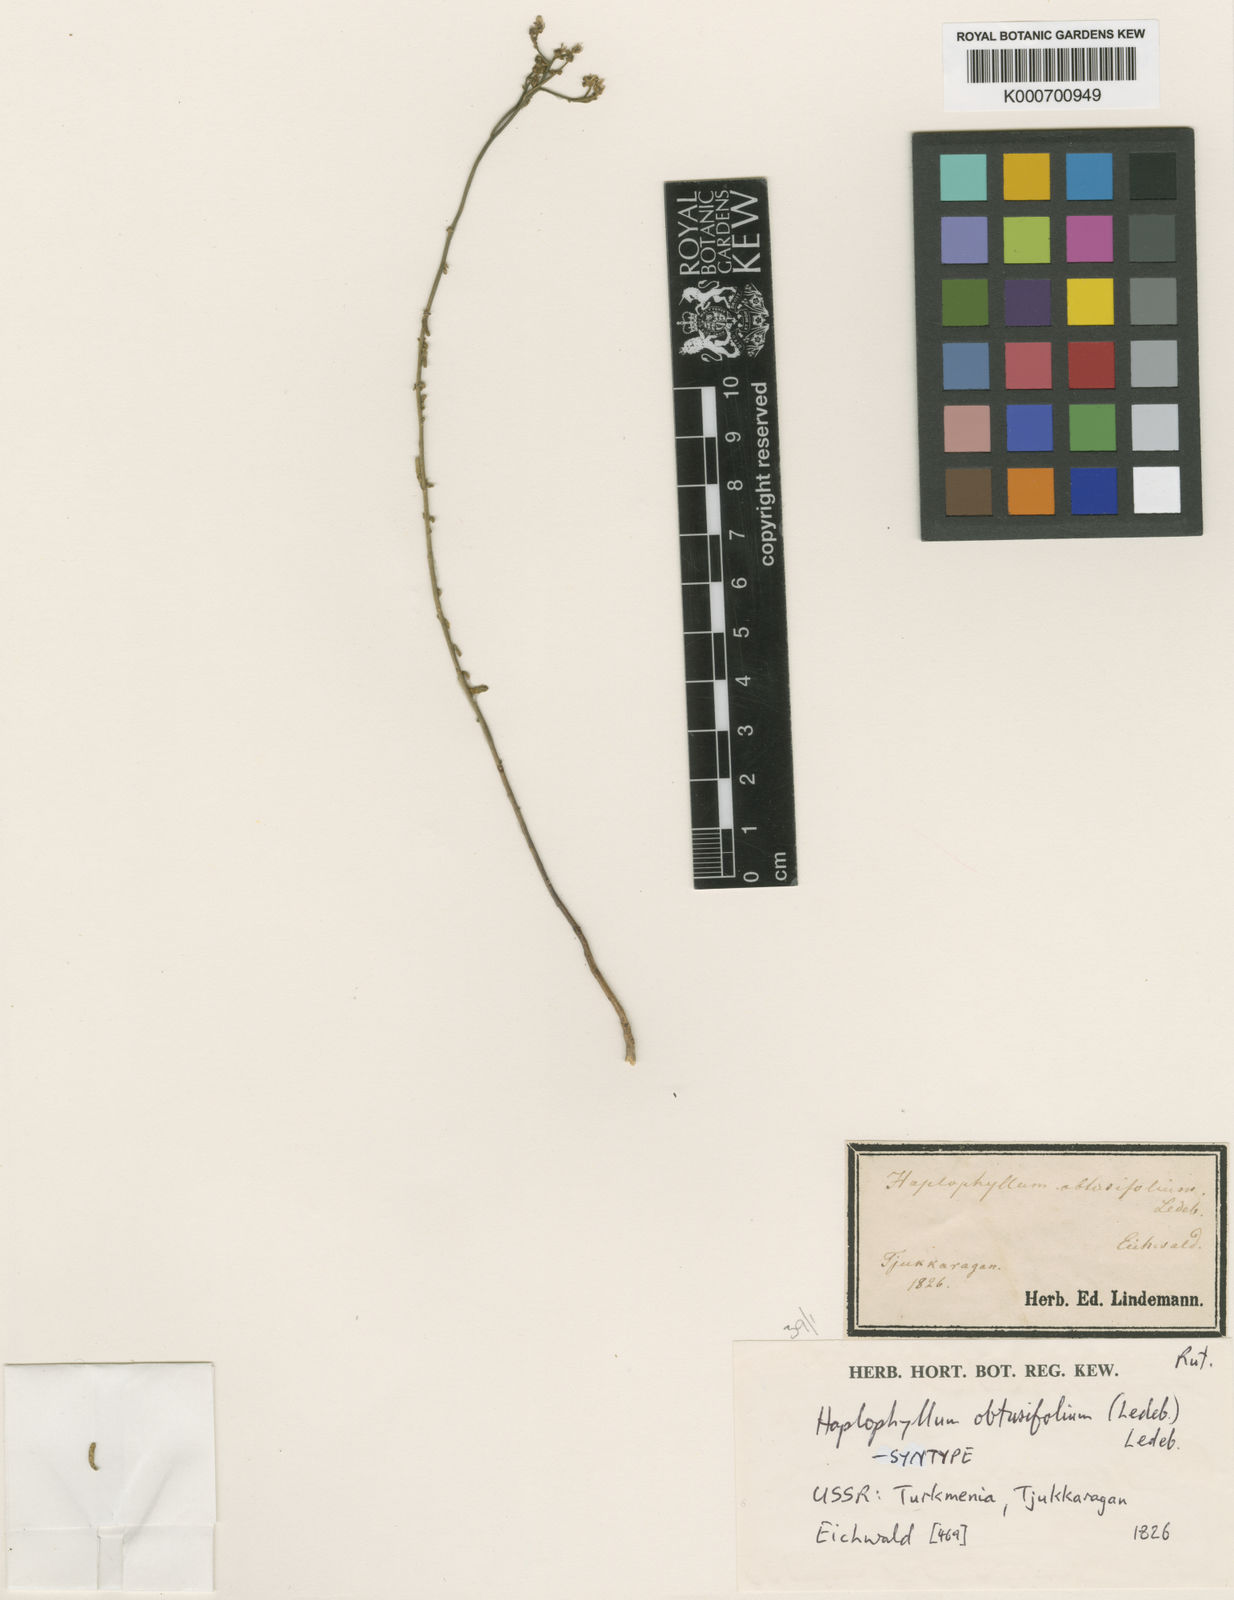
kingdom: Plantae
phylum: Tracheophyta
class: Magnoliopsida
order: Sapindales
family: Rutaceae
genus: Haplophyllum
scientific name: Haplophyllum obtusifolium
